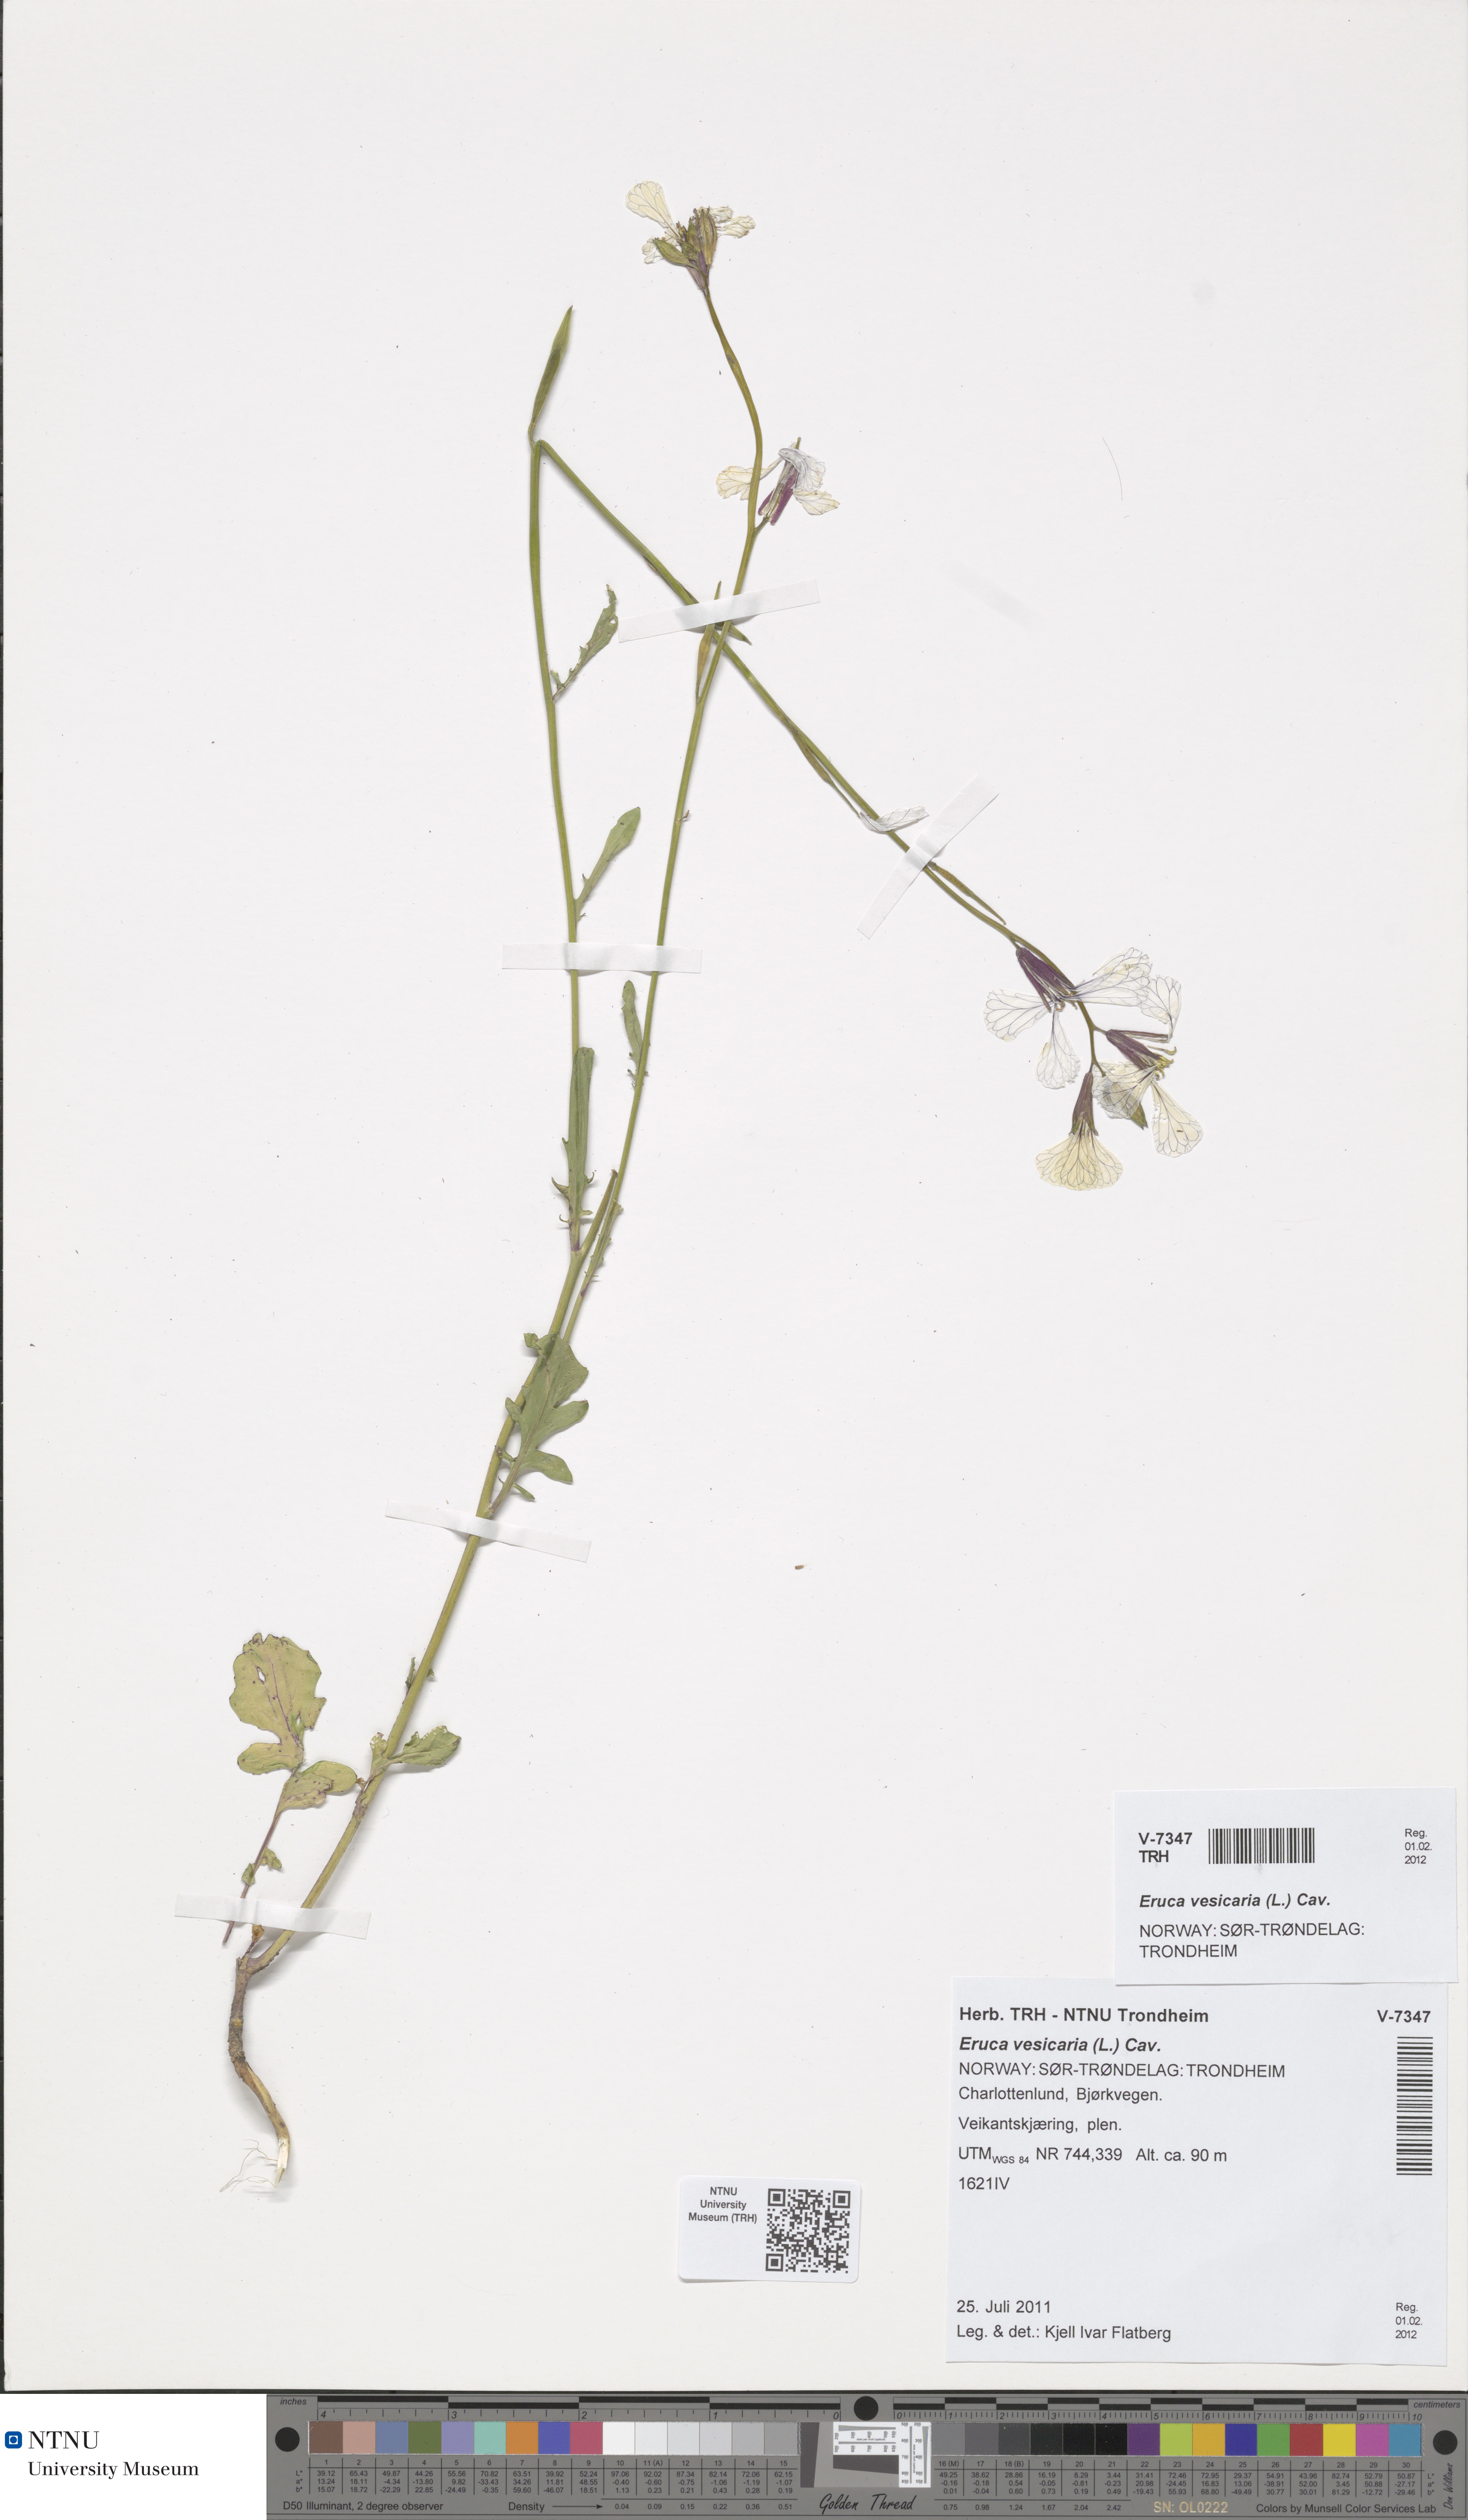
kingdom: Plantae
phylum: Tracheophyta
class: Magnoliopsida
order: Brassicales
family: Brassicaceae
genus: Eruca
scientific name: Eruca vesicaria
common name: Garden rocket
